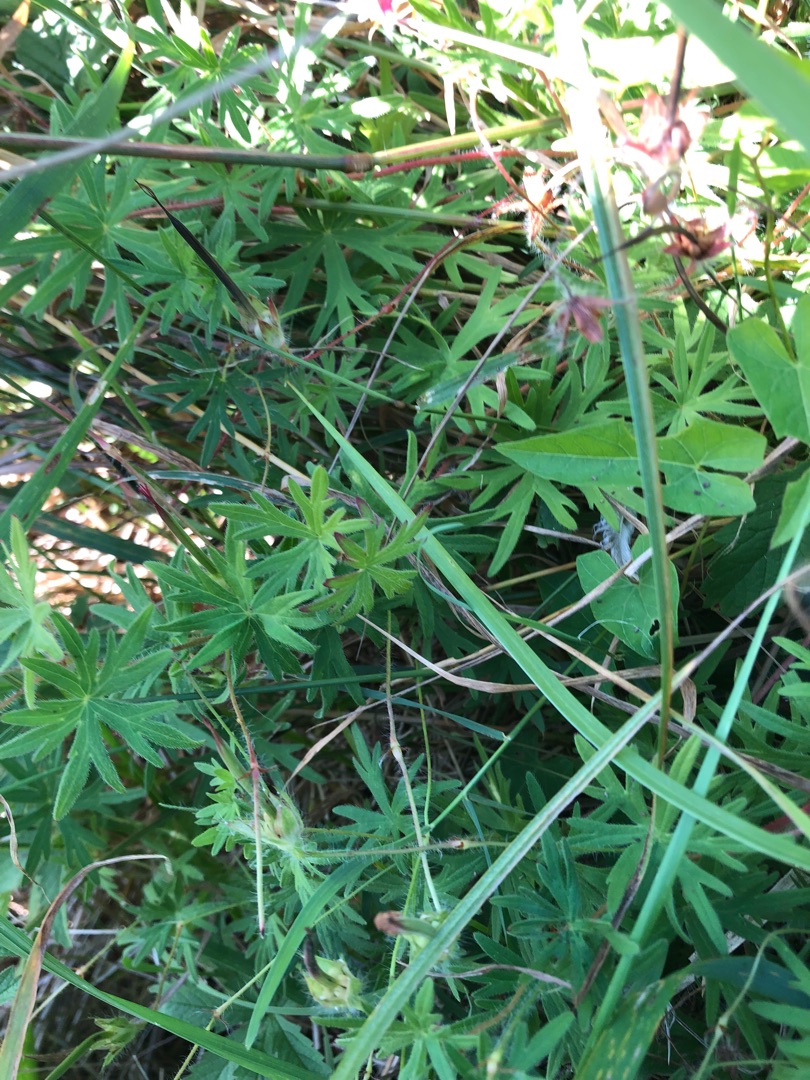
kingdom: Plantae
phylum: Tracheophyta
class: Magnoliopsida
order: Geraniales
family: Geraniaceae
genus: Geranium
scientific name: Geranium sanguineum
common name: Blodrød storkenæb
